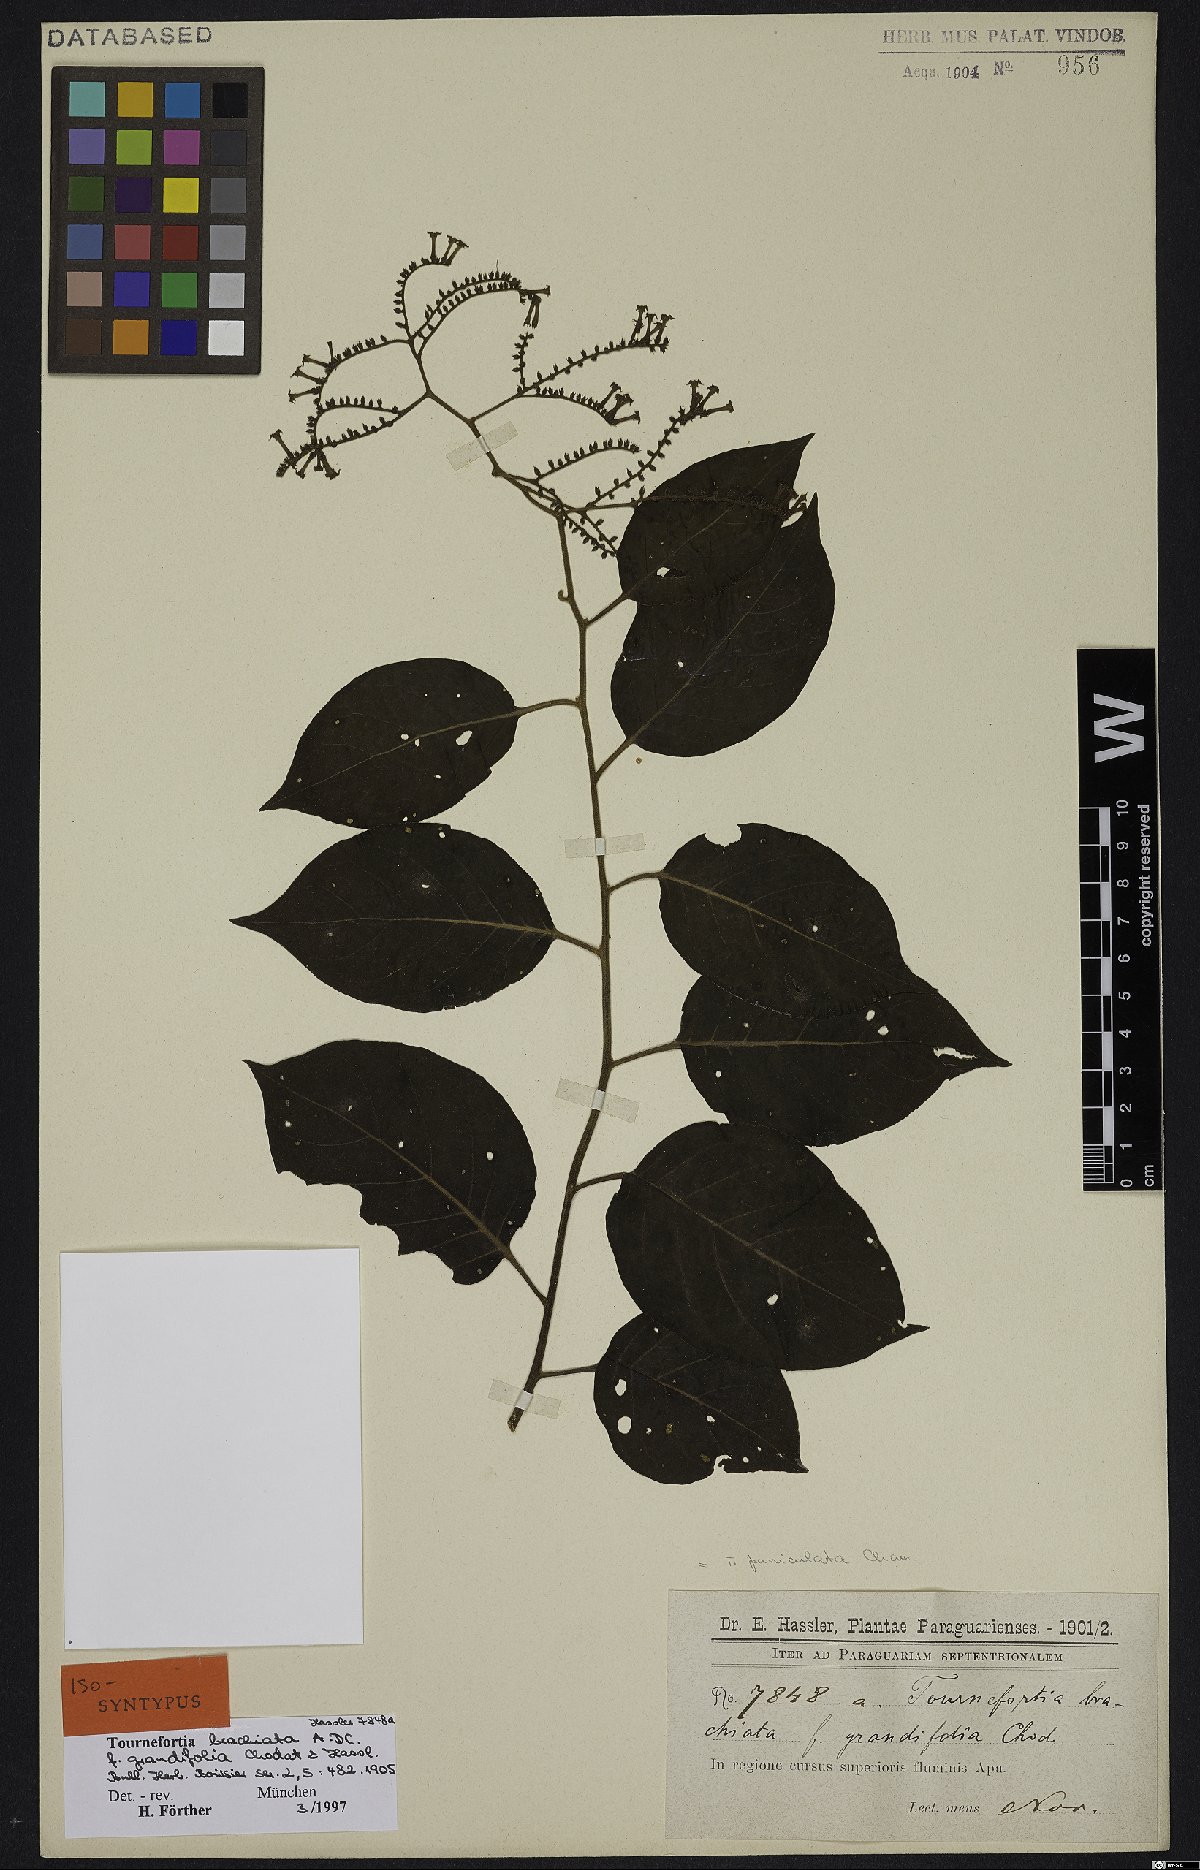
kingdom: Plantae
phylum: Tracheophyta
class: Magnoliopsida
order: Boraginales
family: Heliotropiaceae
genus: Myriopus
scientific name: Myriopus paniculatus
